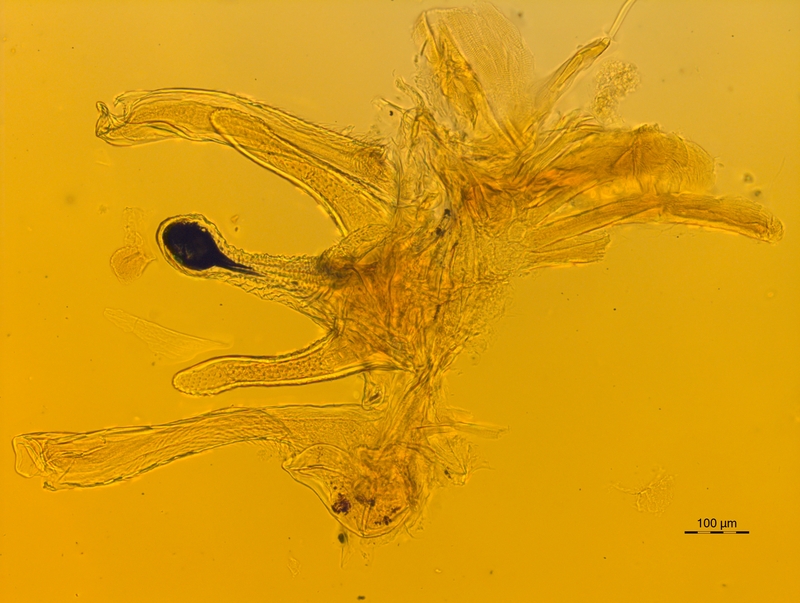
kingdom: Animalia
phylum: Arthropoda
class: Diplopoda
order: Chordeumatida
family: Chordeumatidae
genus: Chordeuma
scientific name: Chordeuma sylvestre
